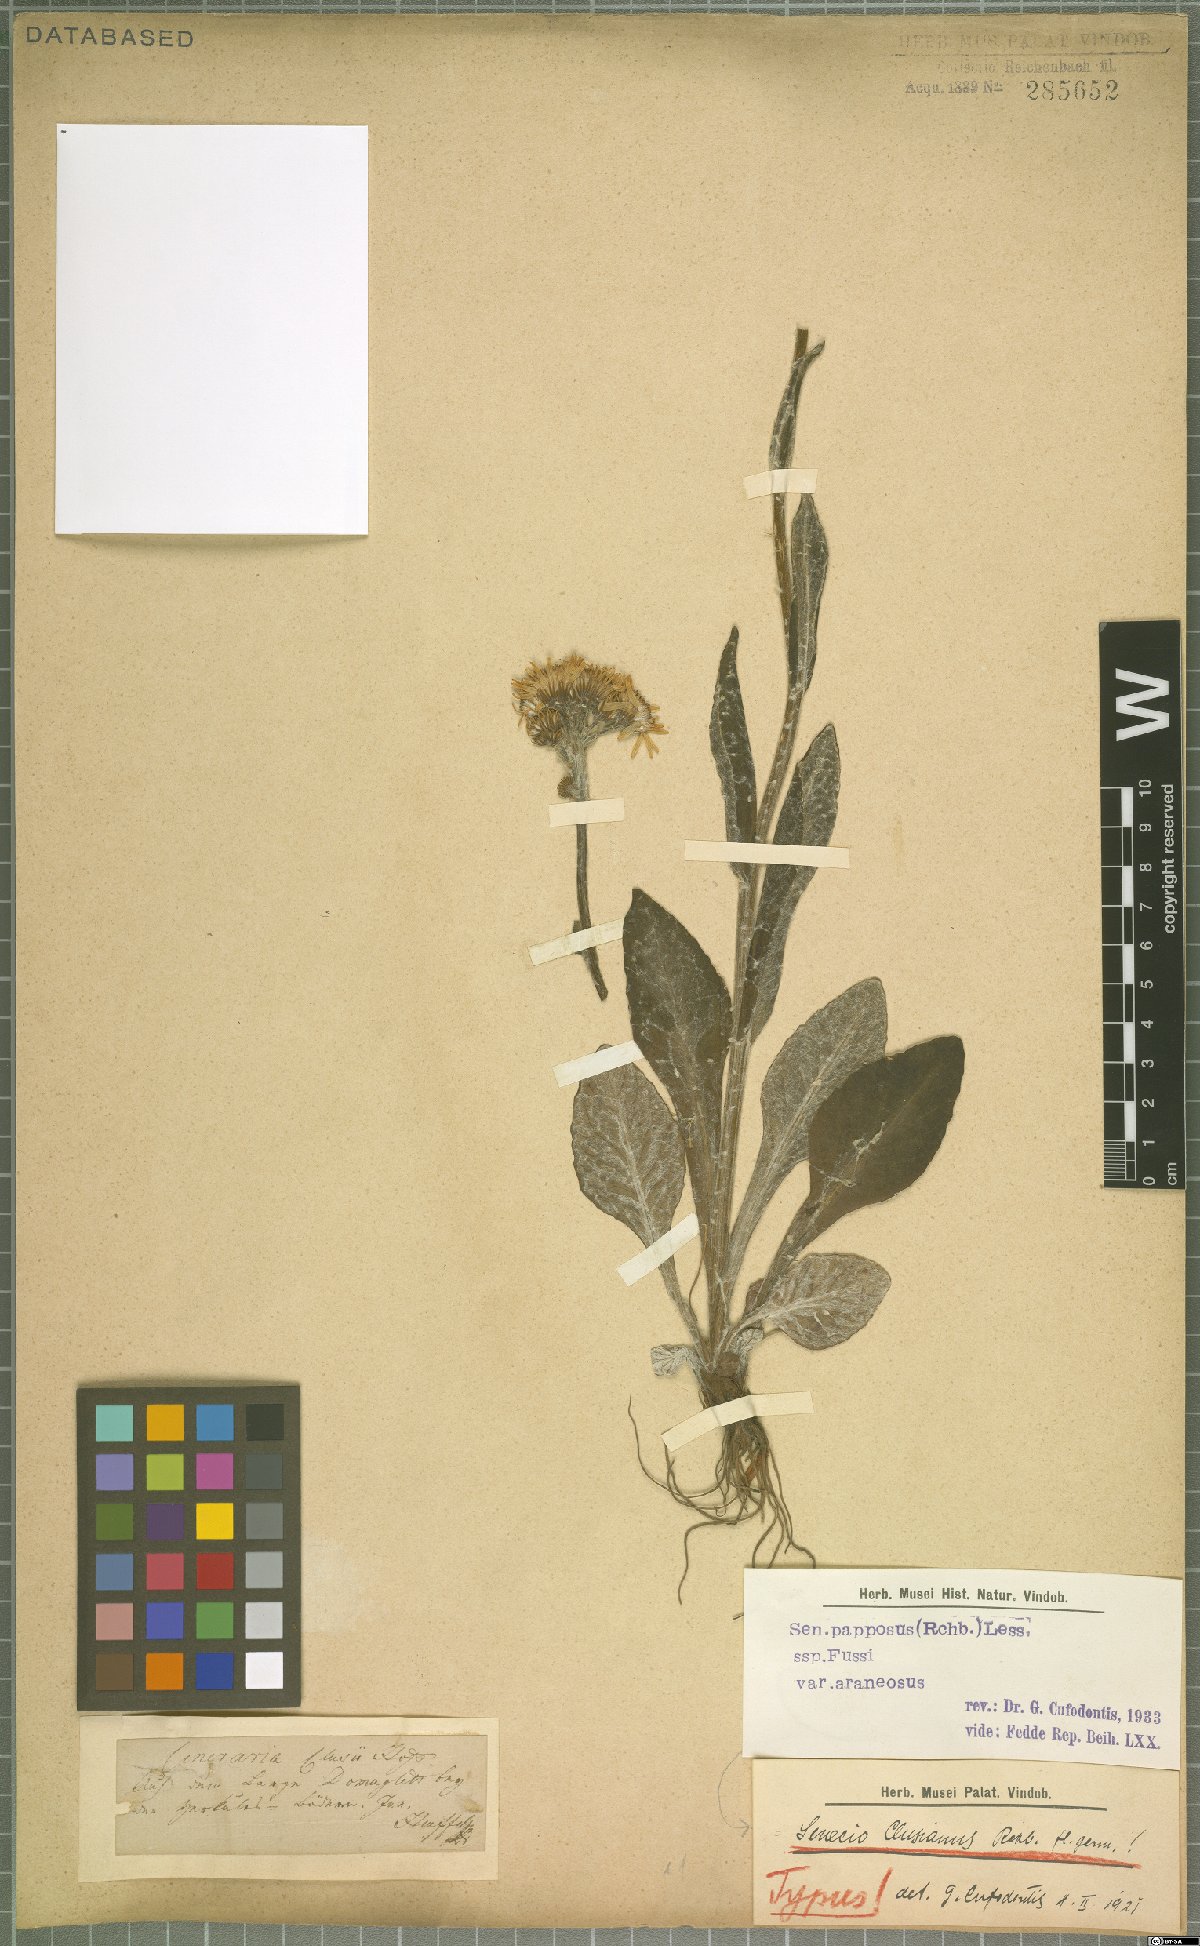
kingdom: Plantae
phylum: Tracheophyta
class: Magnoliopsida
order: Asterales
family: Asteraceae
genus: Tephroseris
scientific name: Tephroseris papposa
